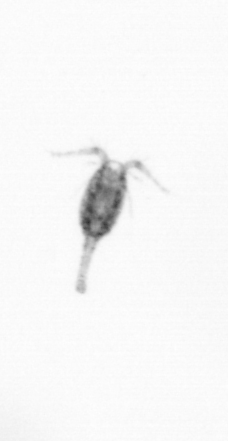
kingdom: Animalia
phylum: Arthropoda
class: Copepoda
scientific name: Copepoda
